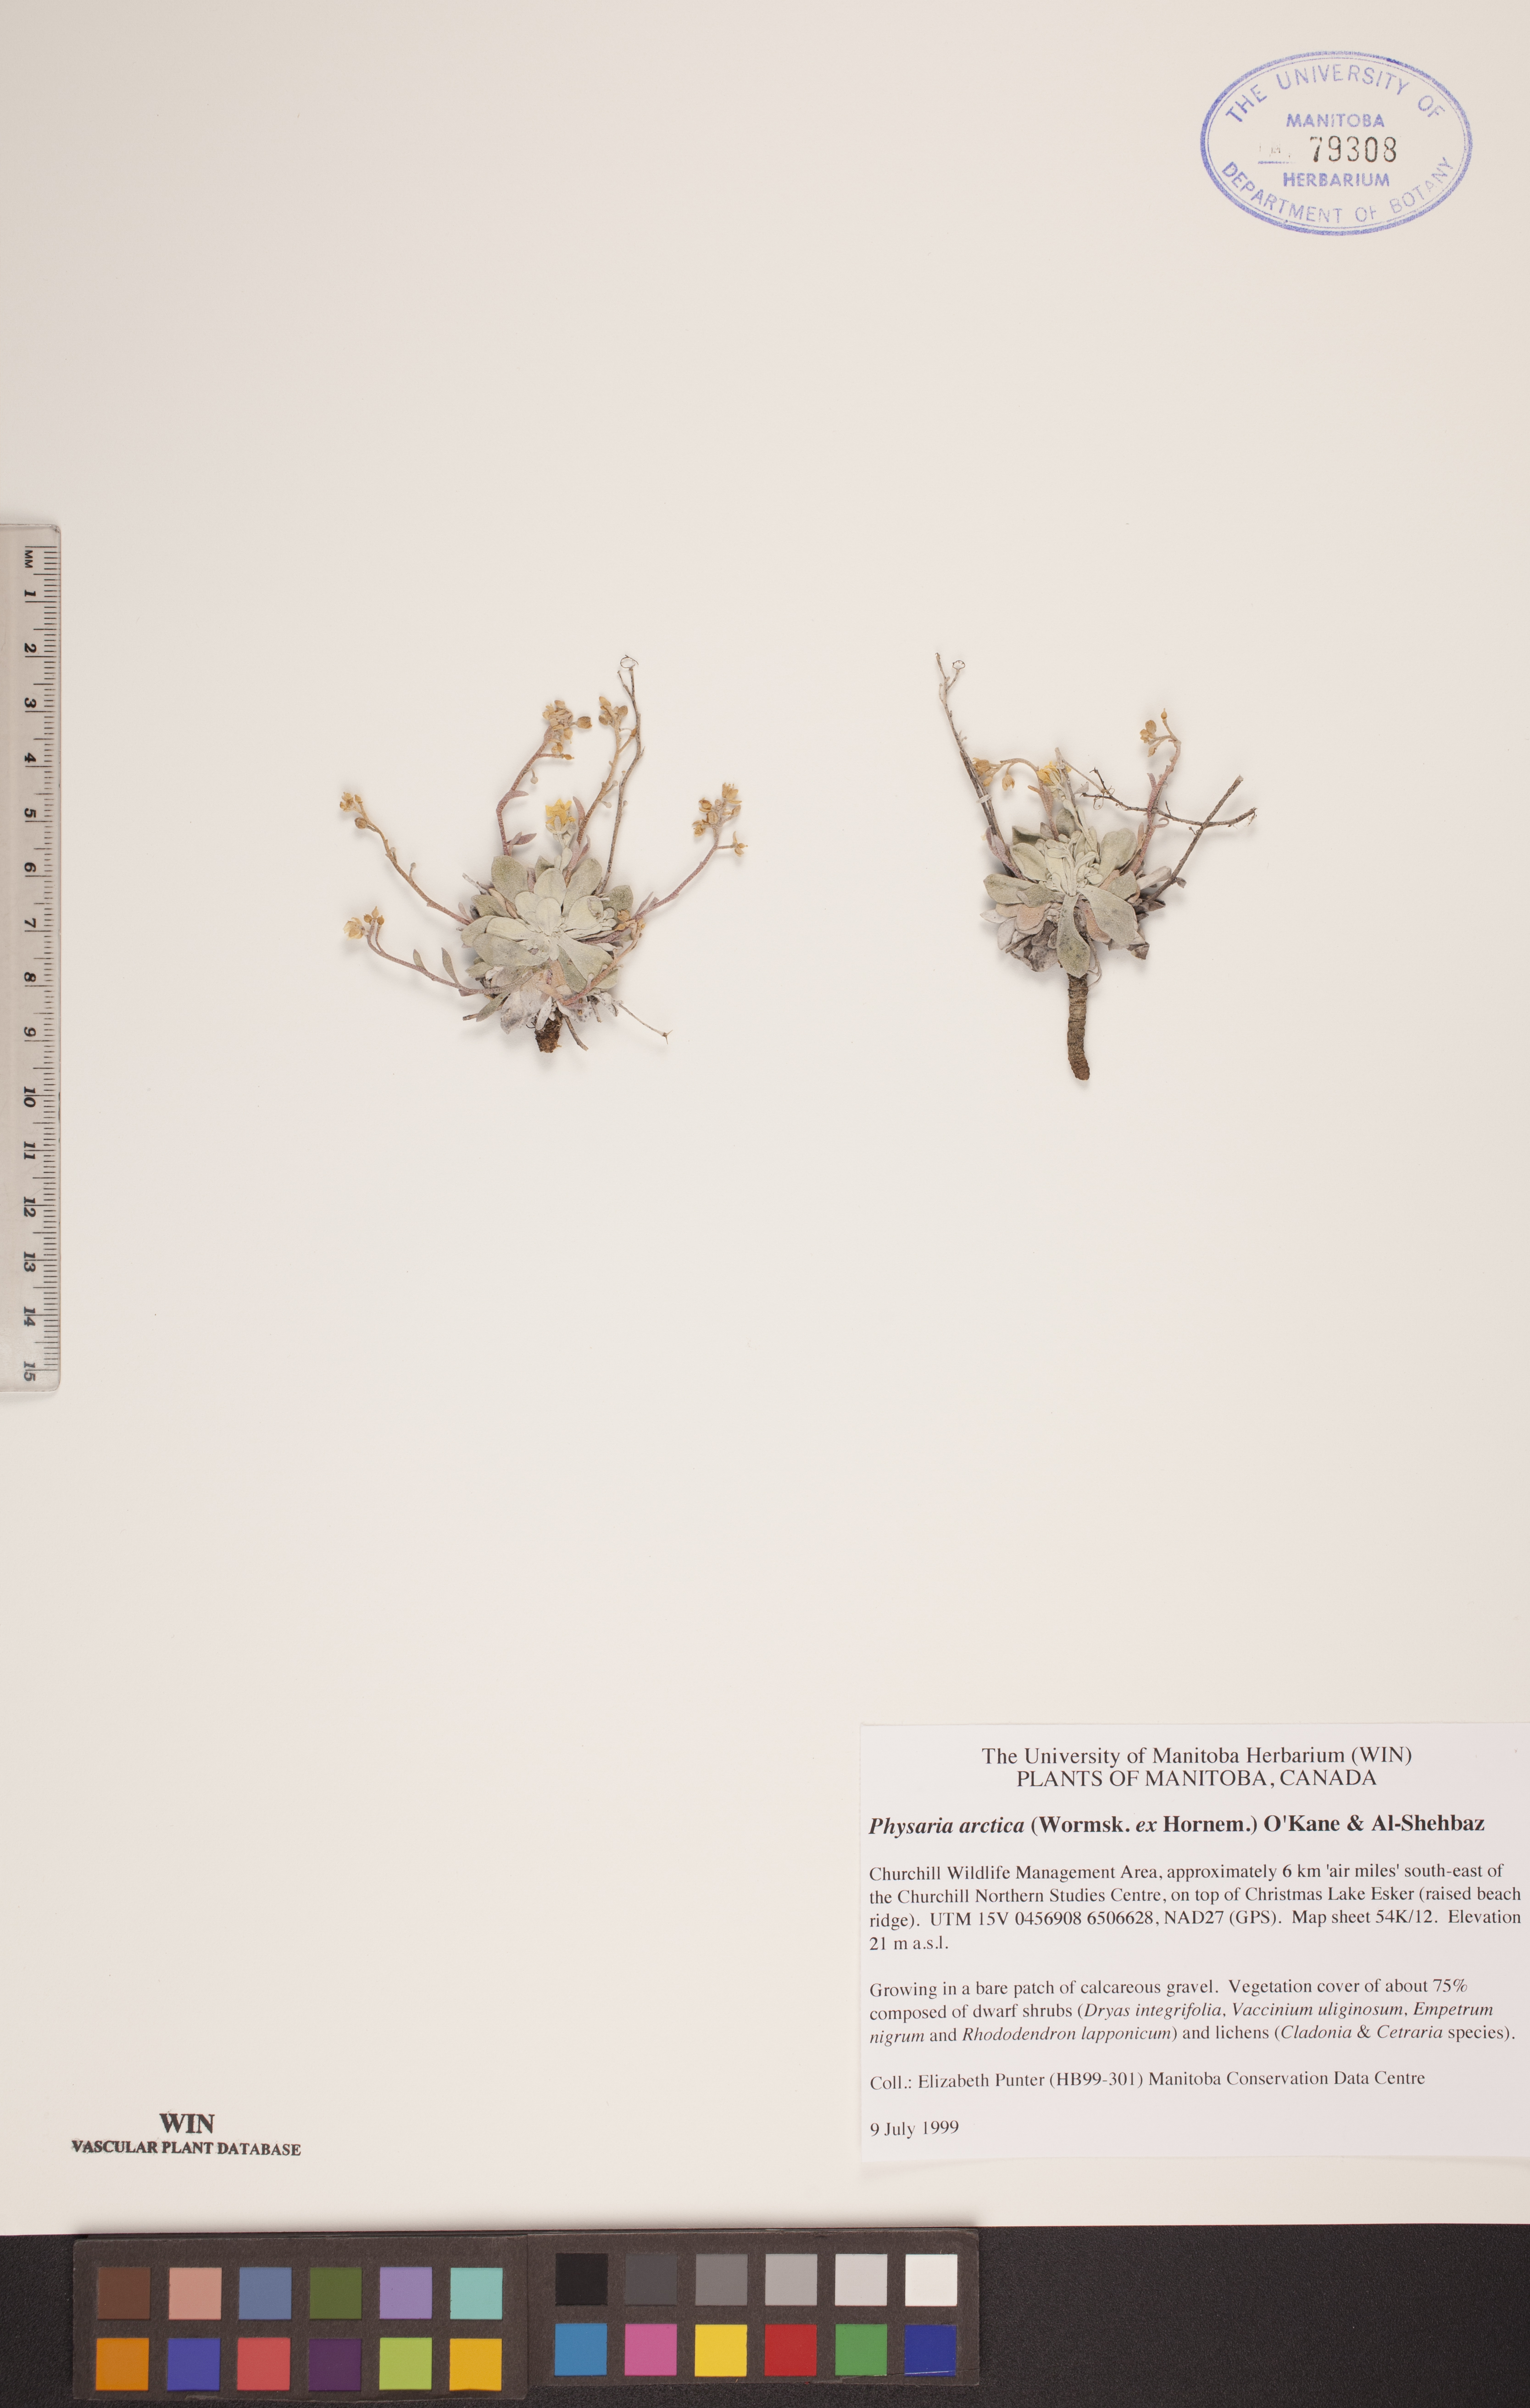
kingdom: Plantae
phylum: Tracheophyta
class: Magnoliopsida
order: Brassicales
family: Brassicaceae
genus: Physaria
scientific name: Physaria arctica
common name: Arctic bladderpod
